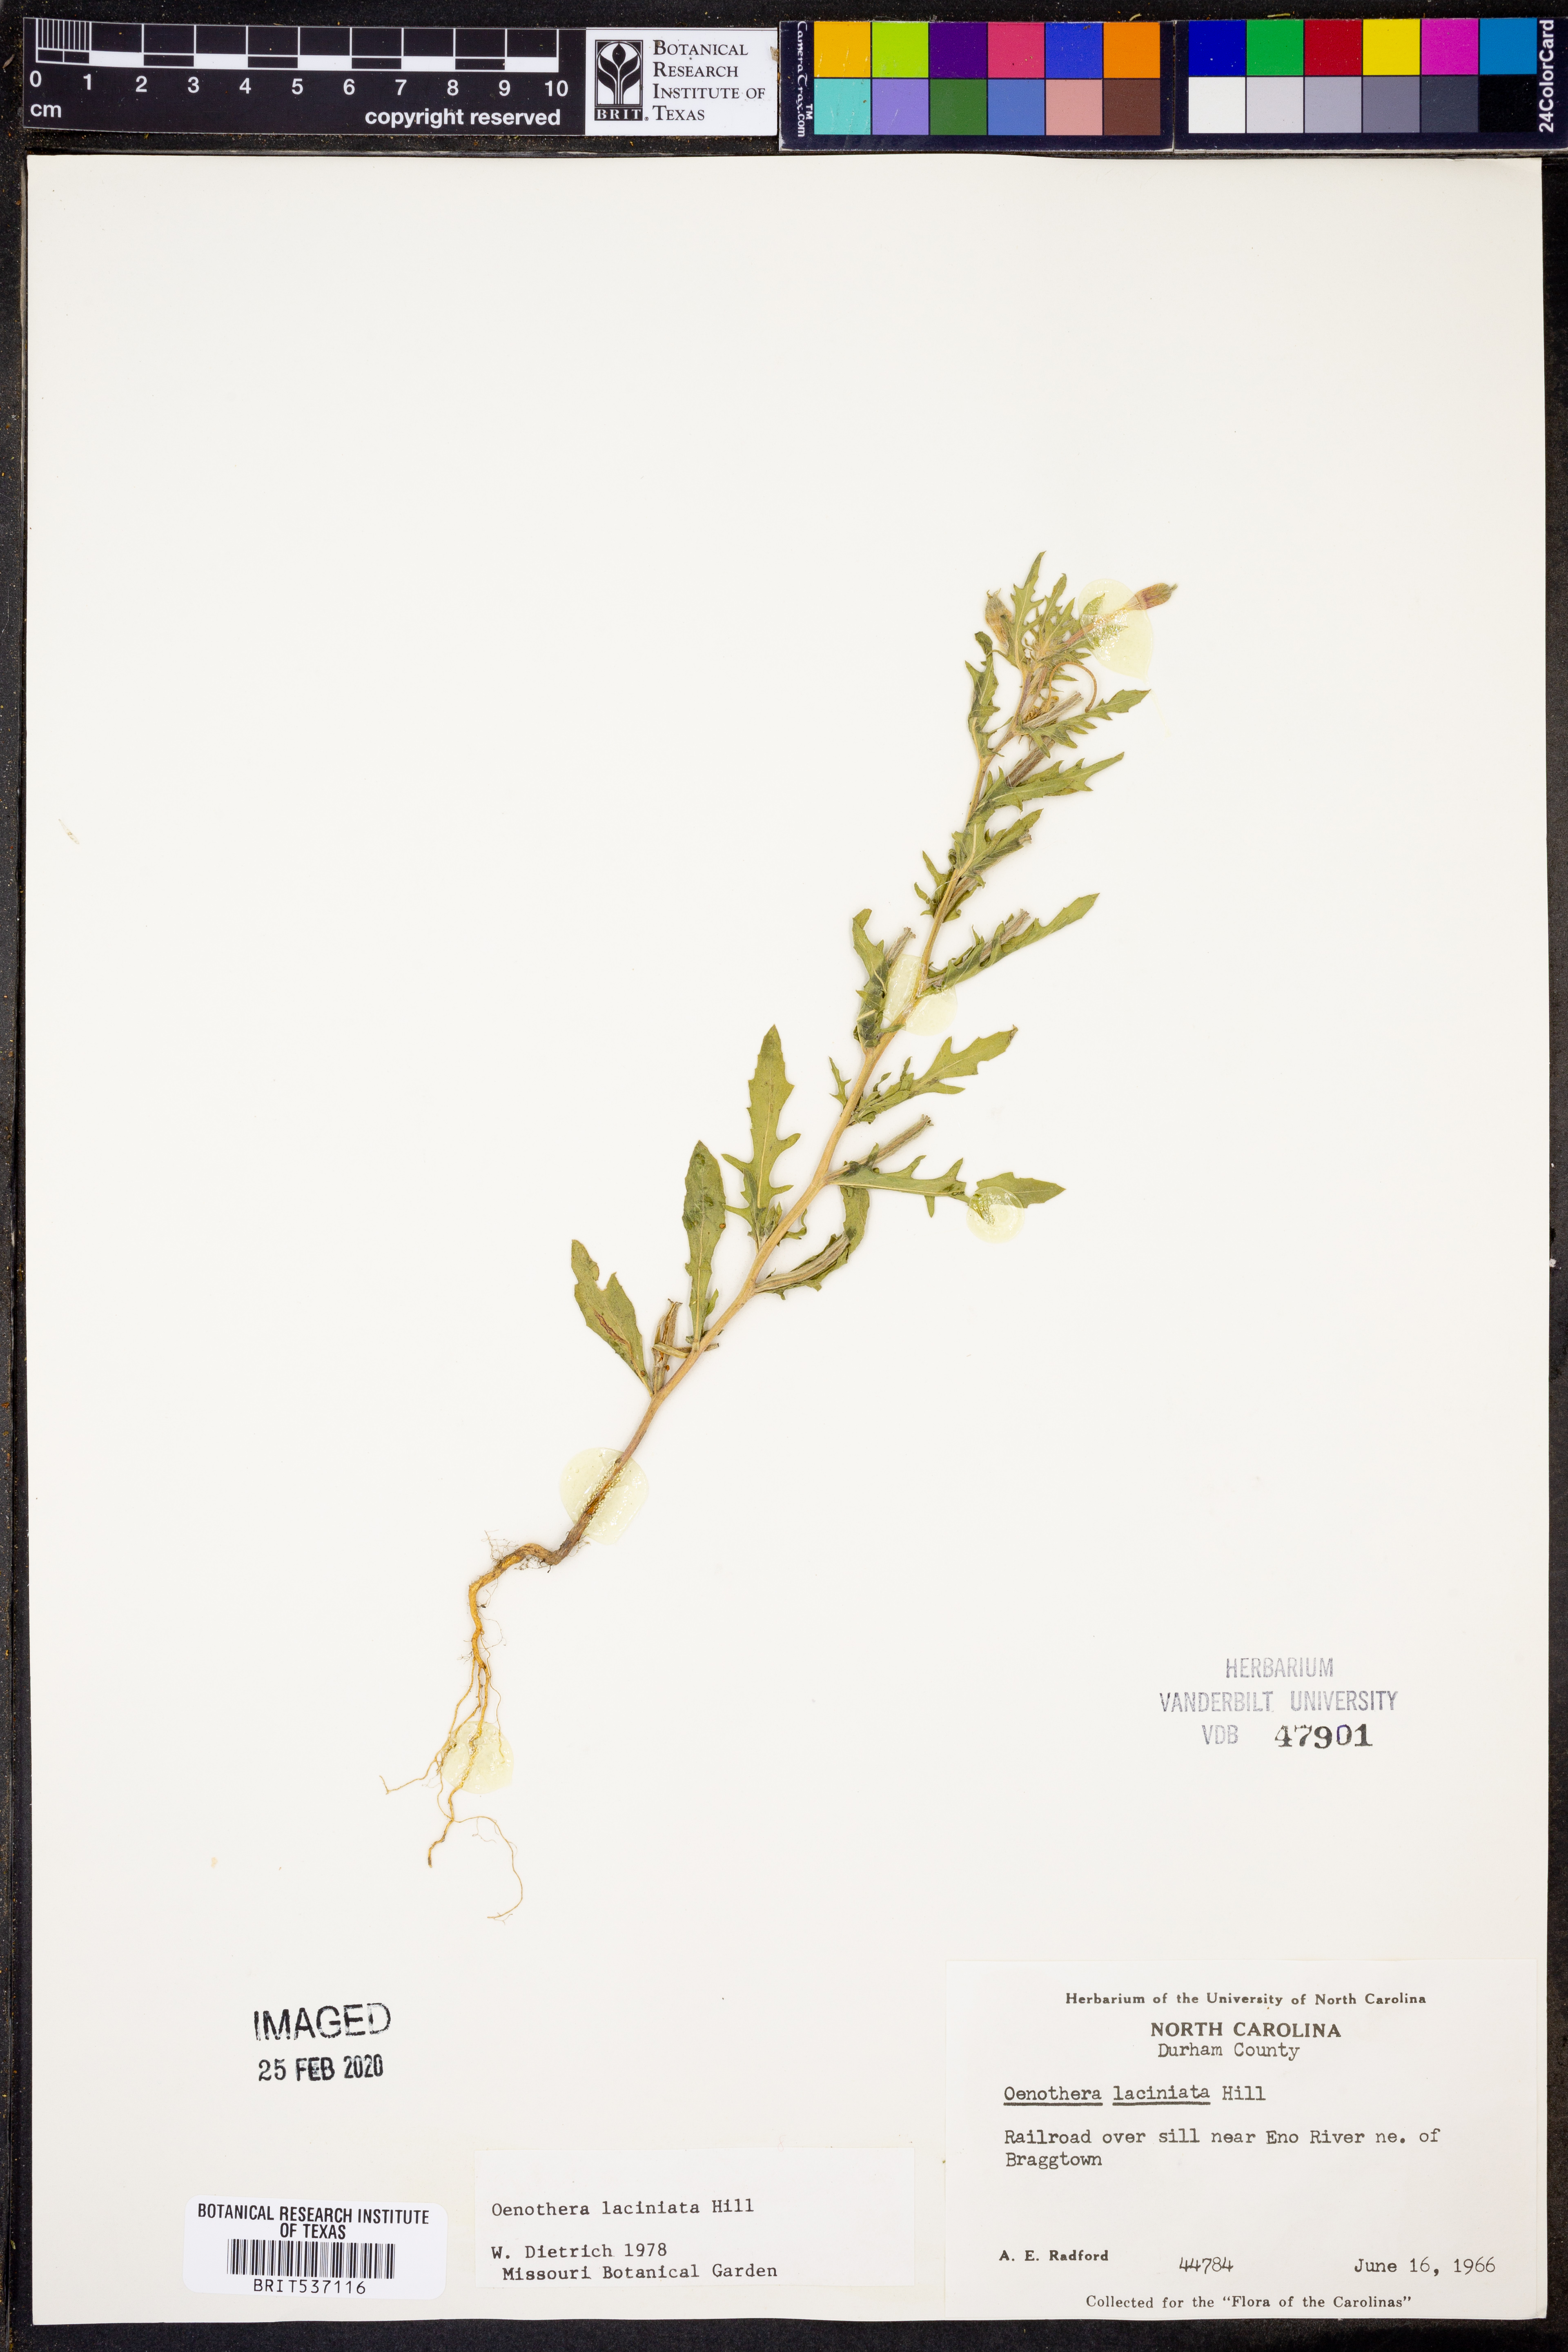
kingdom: Plantae
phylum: Tracheophyta
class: Magnoliopsida
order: Myrtales
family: Onagraceae
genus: Oenothera
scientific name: Oenothera laciniata
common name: Cut-leaved evening-primrose
